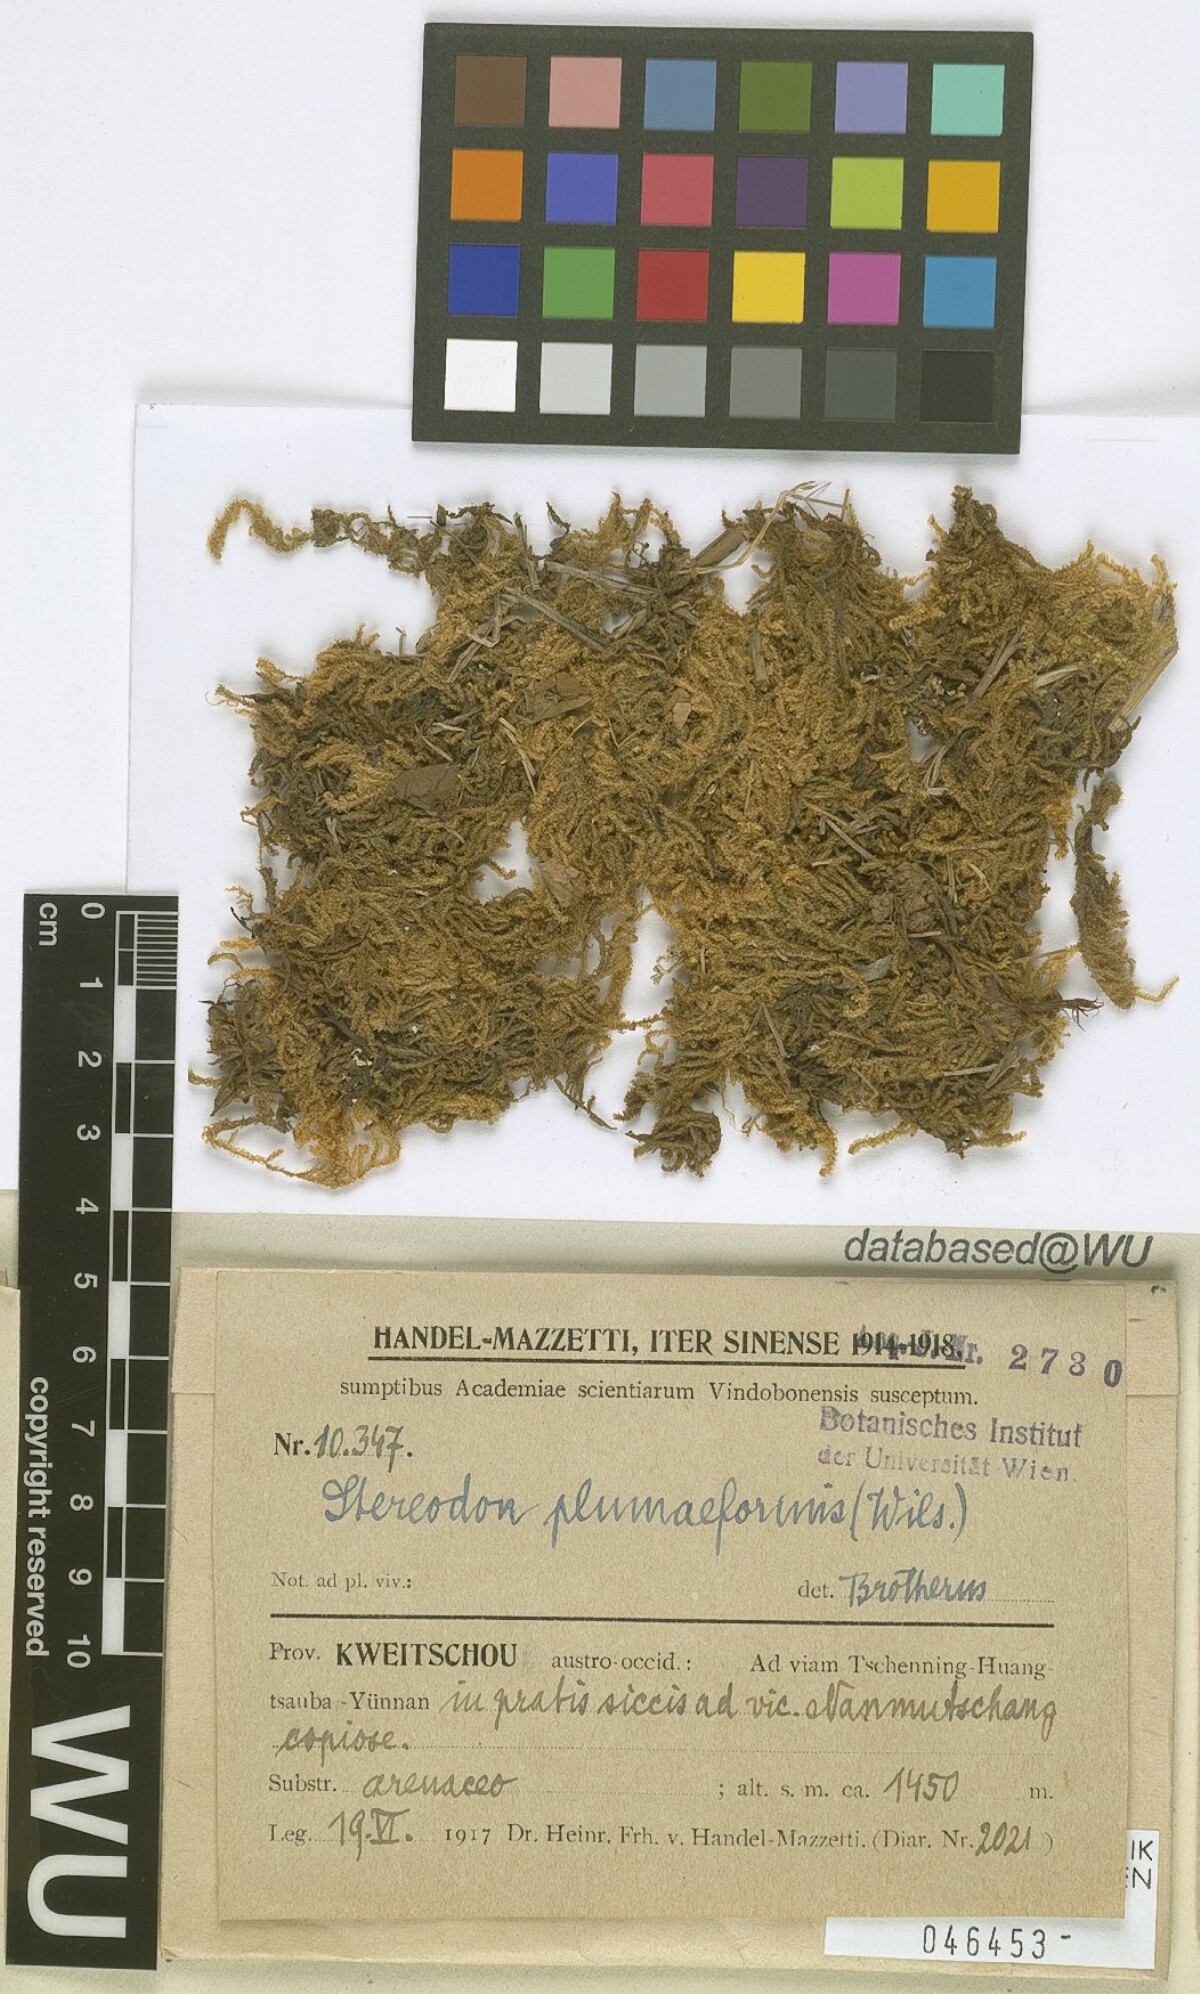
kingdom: Plantae
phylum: Bryophyta
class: Bryopsida
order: Hypnales
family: Hypnaceae
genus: Hypnum
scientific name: Hypnum plumaeforme
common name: Cypress-leaved plaitmoss
